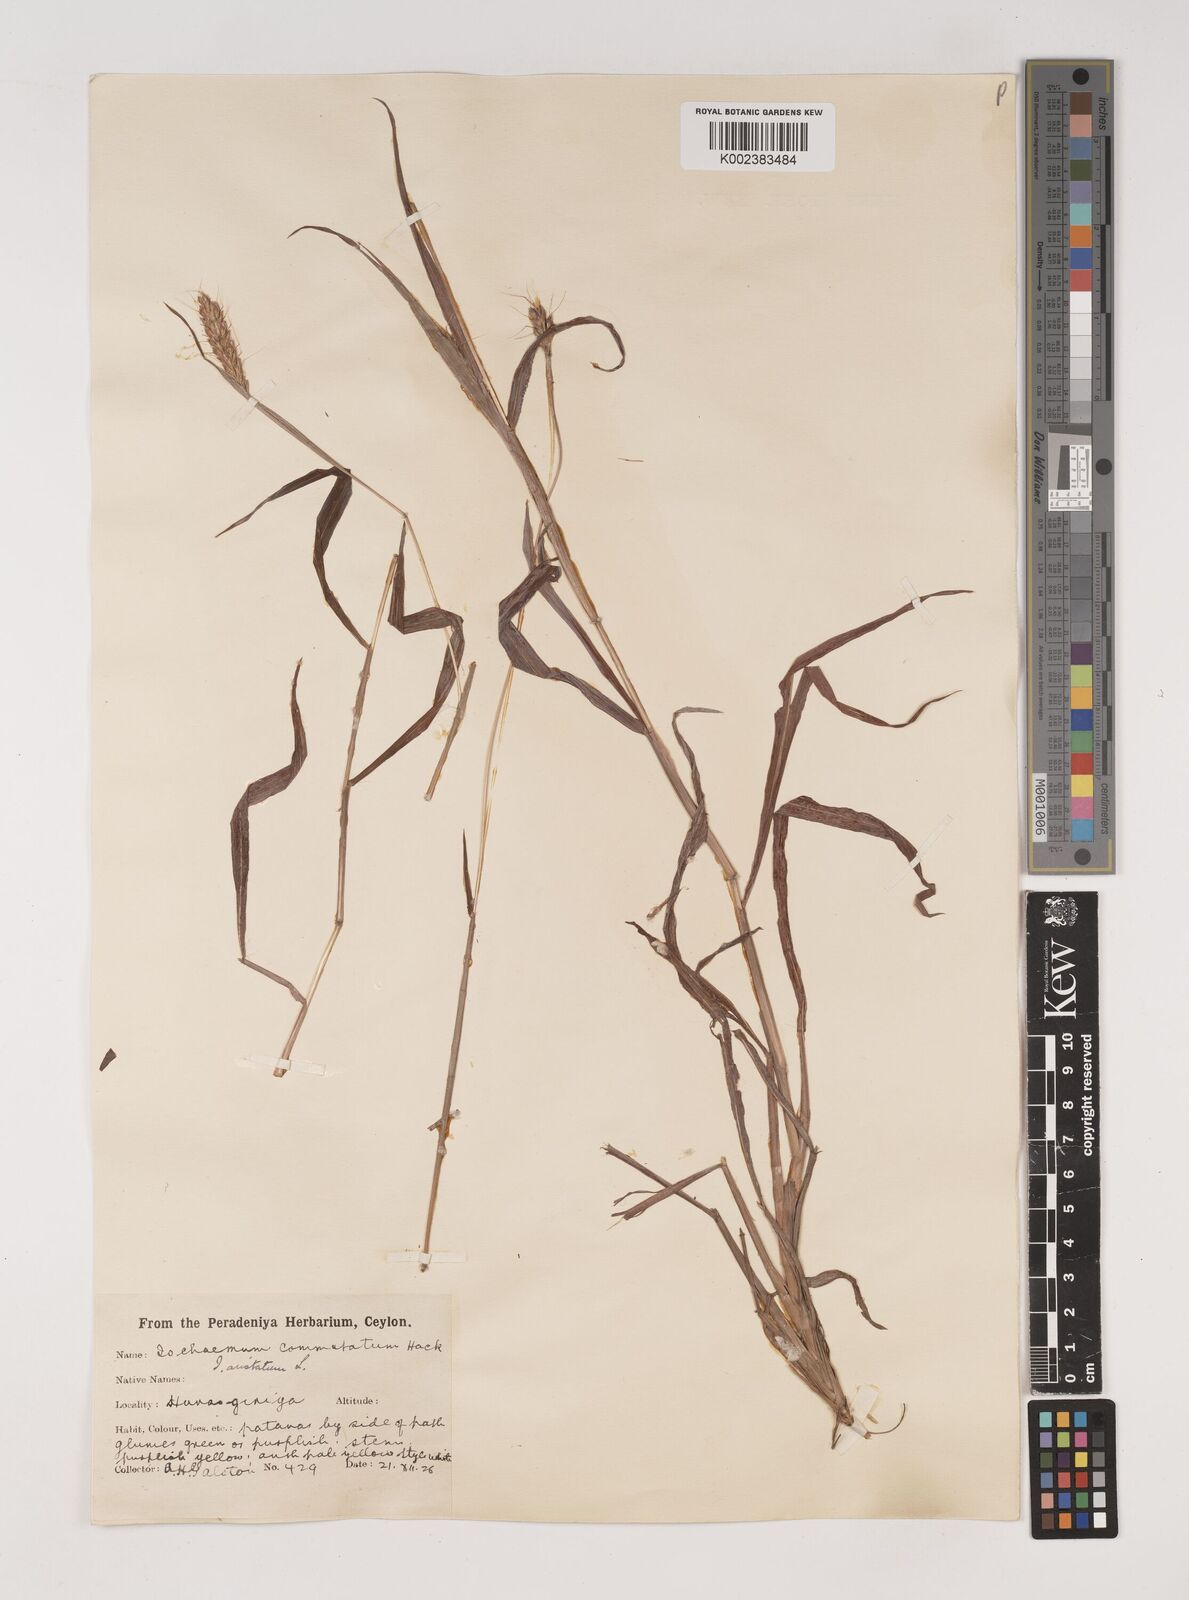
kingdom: Plantae
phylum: Tracheophyta
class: Liliopsida
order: Poales
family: Poaceae
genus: Polytrias
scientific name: Polytrias indica
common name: Indian murainagrass
